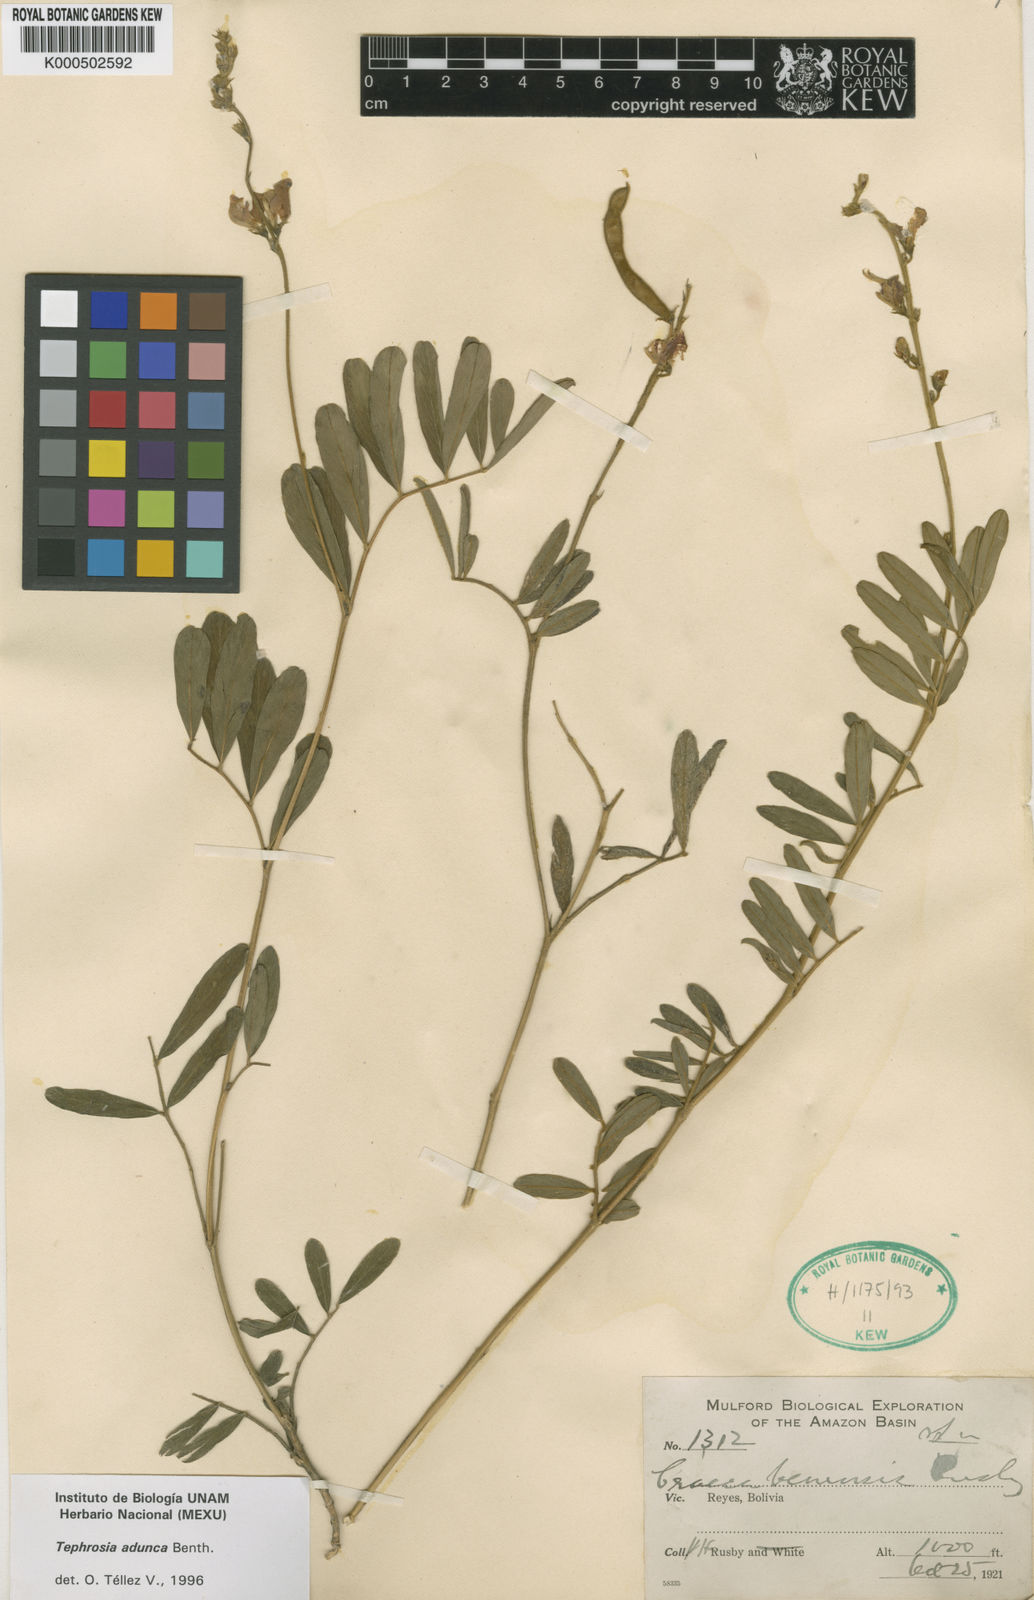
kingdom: Plantae
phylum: Tracheophyta
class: Magnoliopsida
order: Fabales
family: Fabaceae
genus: Tephrosia
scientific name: Tephrosia adunca
